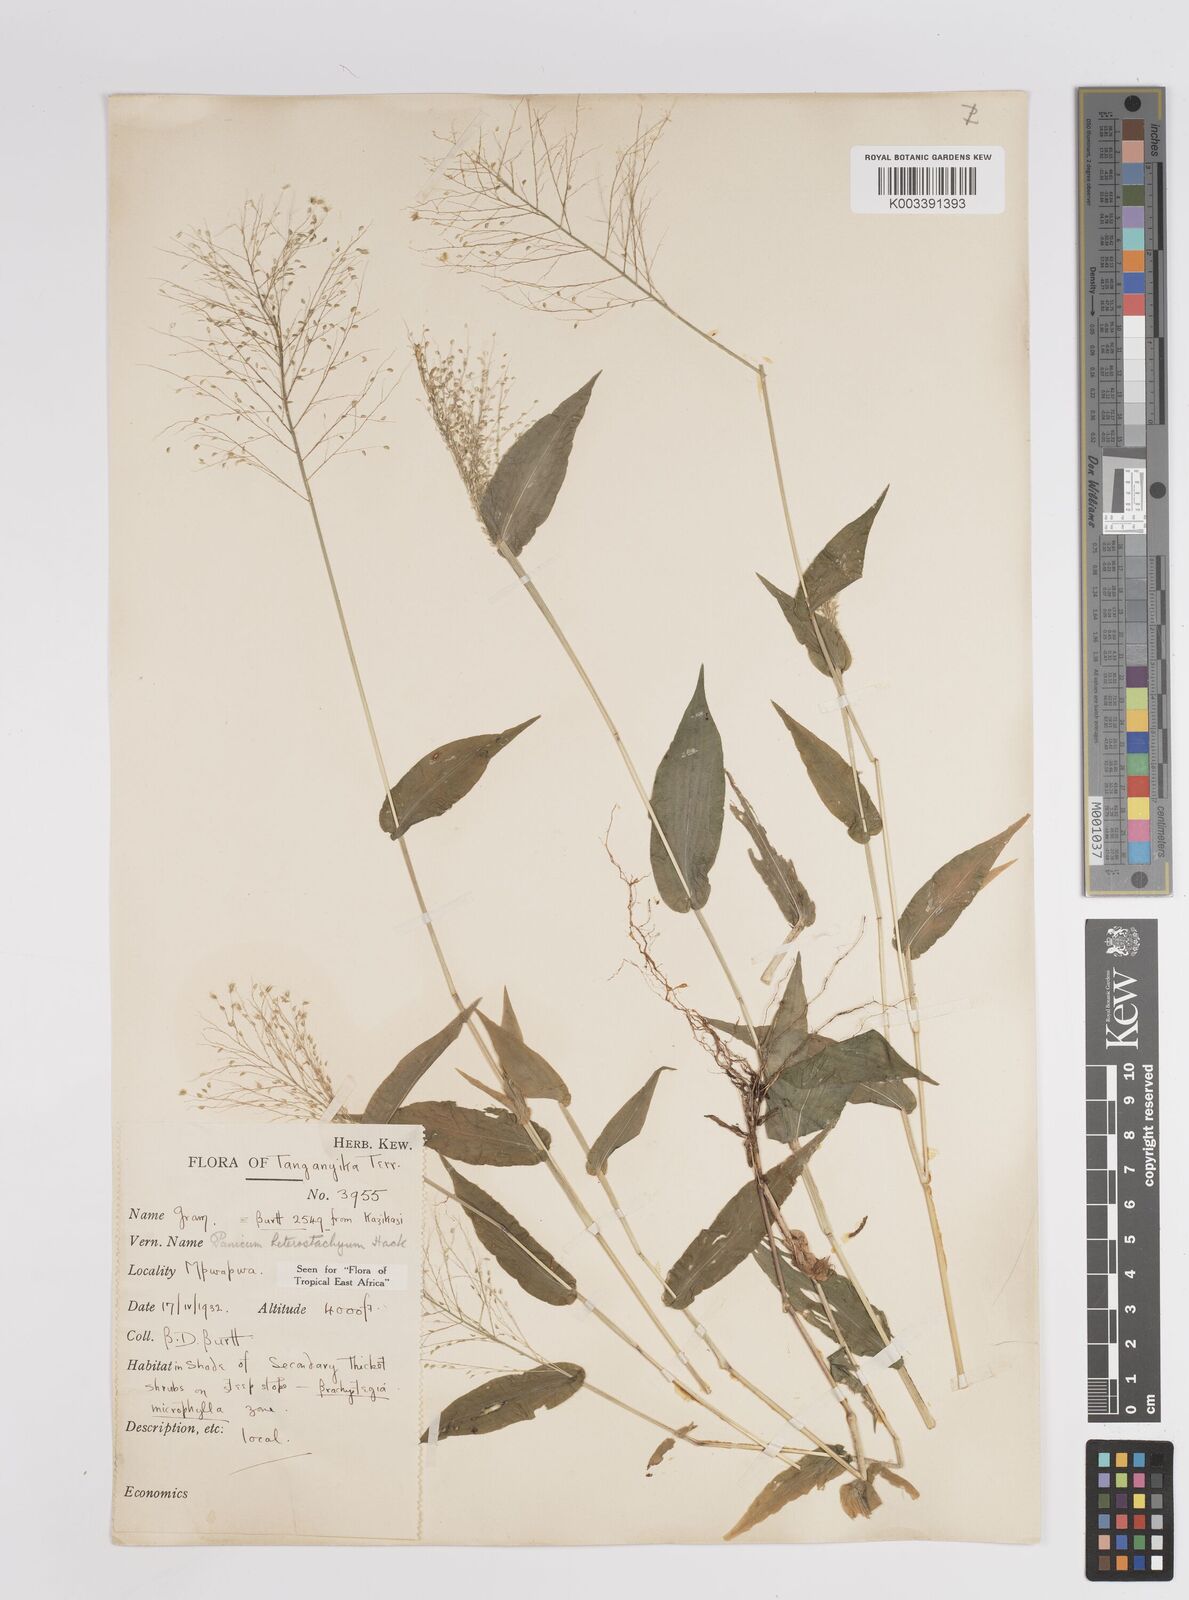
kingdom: Plantae
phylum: Tracheophyta
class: Liliopsida
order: Poales
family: Poaceae
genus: Panicum
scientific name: Panicum hirtum
